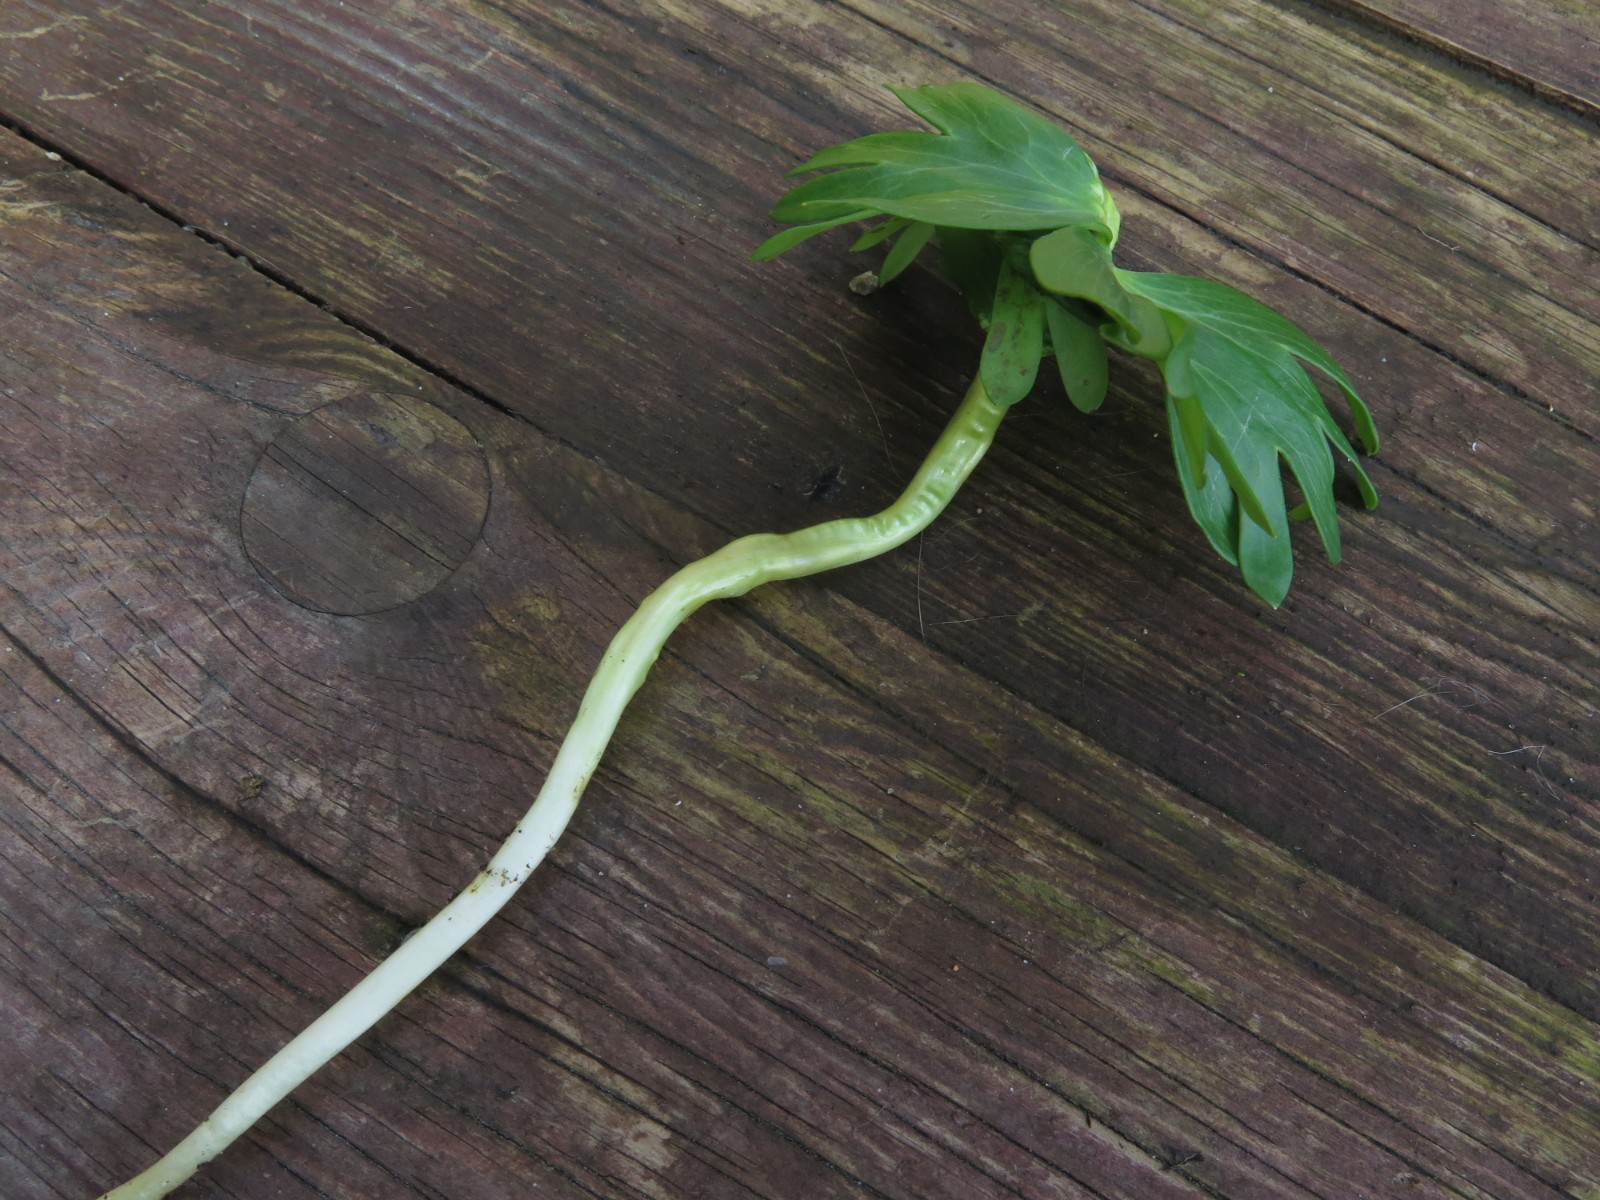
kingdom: Fungi
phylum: Basidiomycota
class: Ustilaginomycetes
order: Urocystidales
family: Urocystidaceae
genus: Urocystis
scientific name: Urocystis eranthidis
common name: erantis-brand
